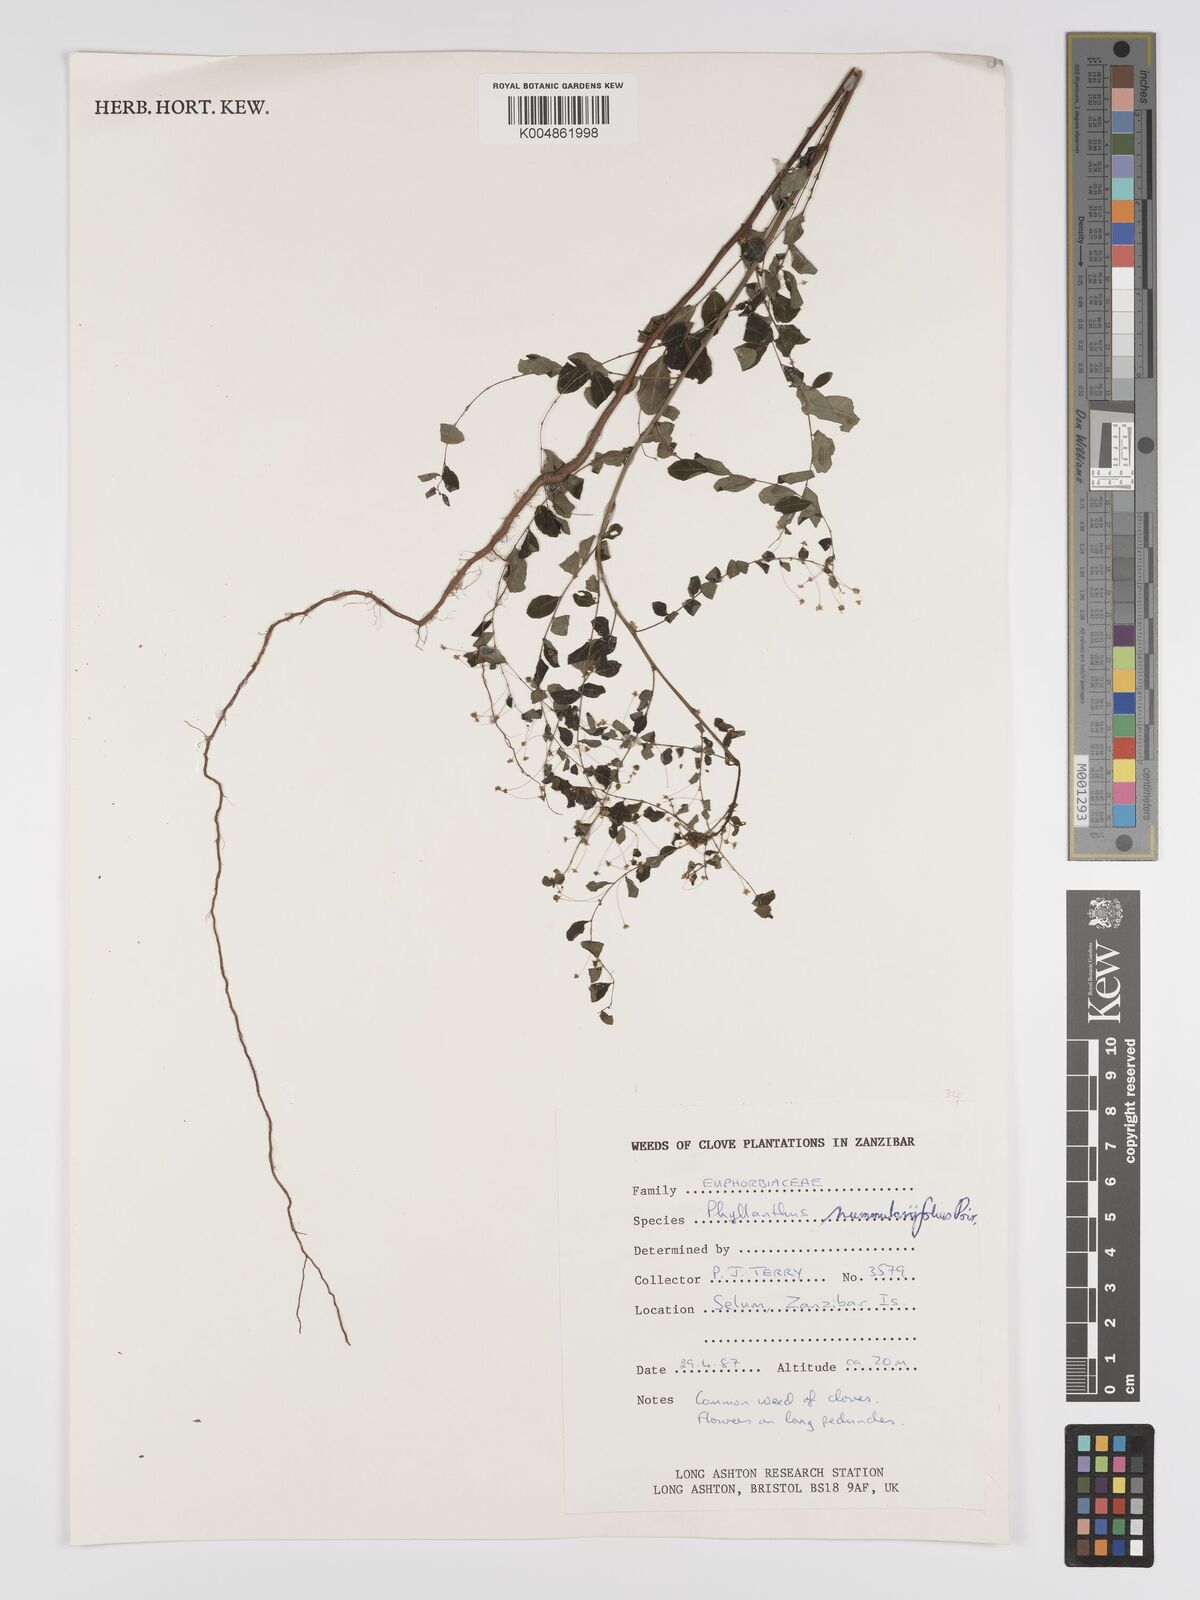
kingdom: Plantae
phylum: Tracheophyta
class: Magnoliopsida
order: Malpighiales
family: Phyllanthaceae
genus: Phyllanthus
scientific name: Phyllanthus nummulariifolius
